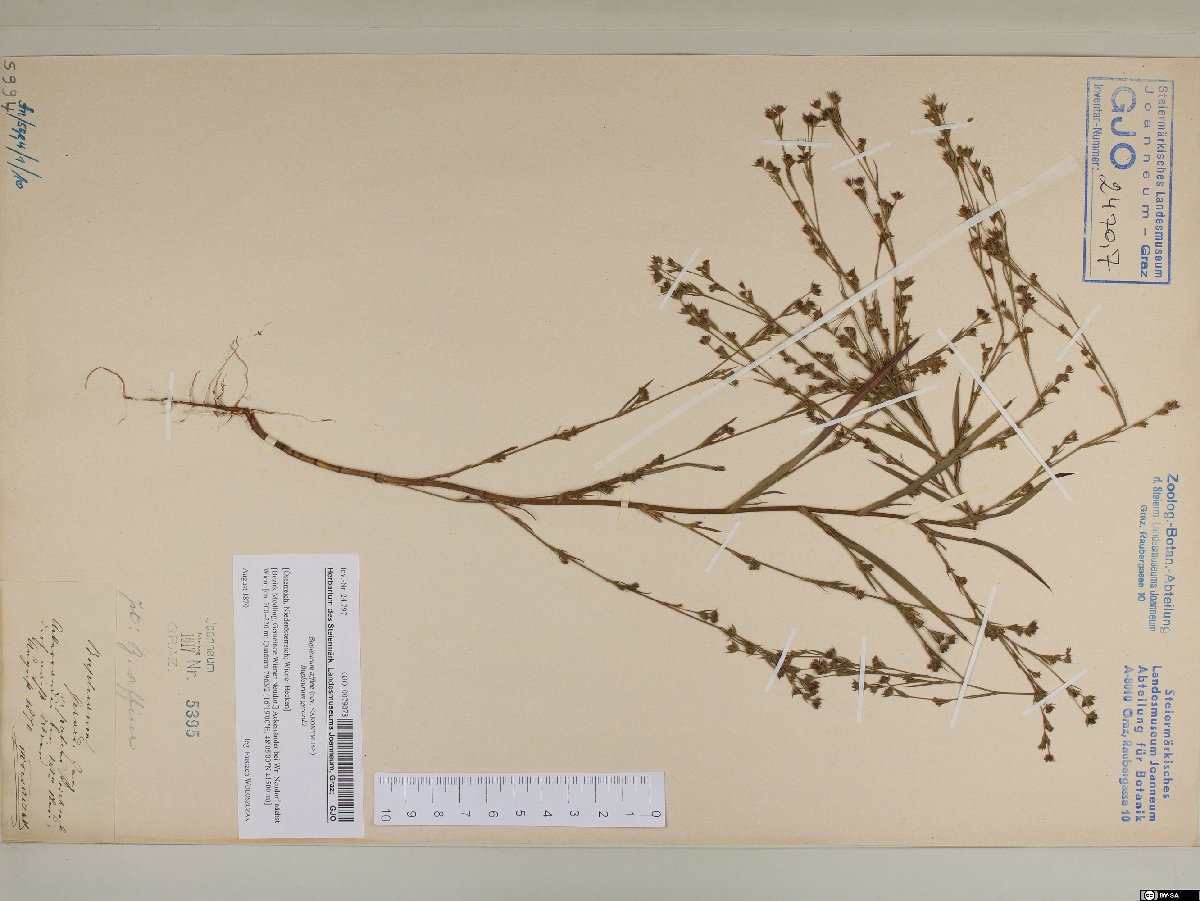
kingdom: Plantae
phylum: Tracheophyta
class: Magnoliopsida
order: Apiales
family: Apiaceae
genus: Bupleurum
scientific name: Bupleurum affine
